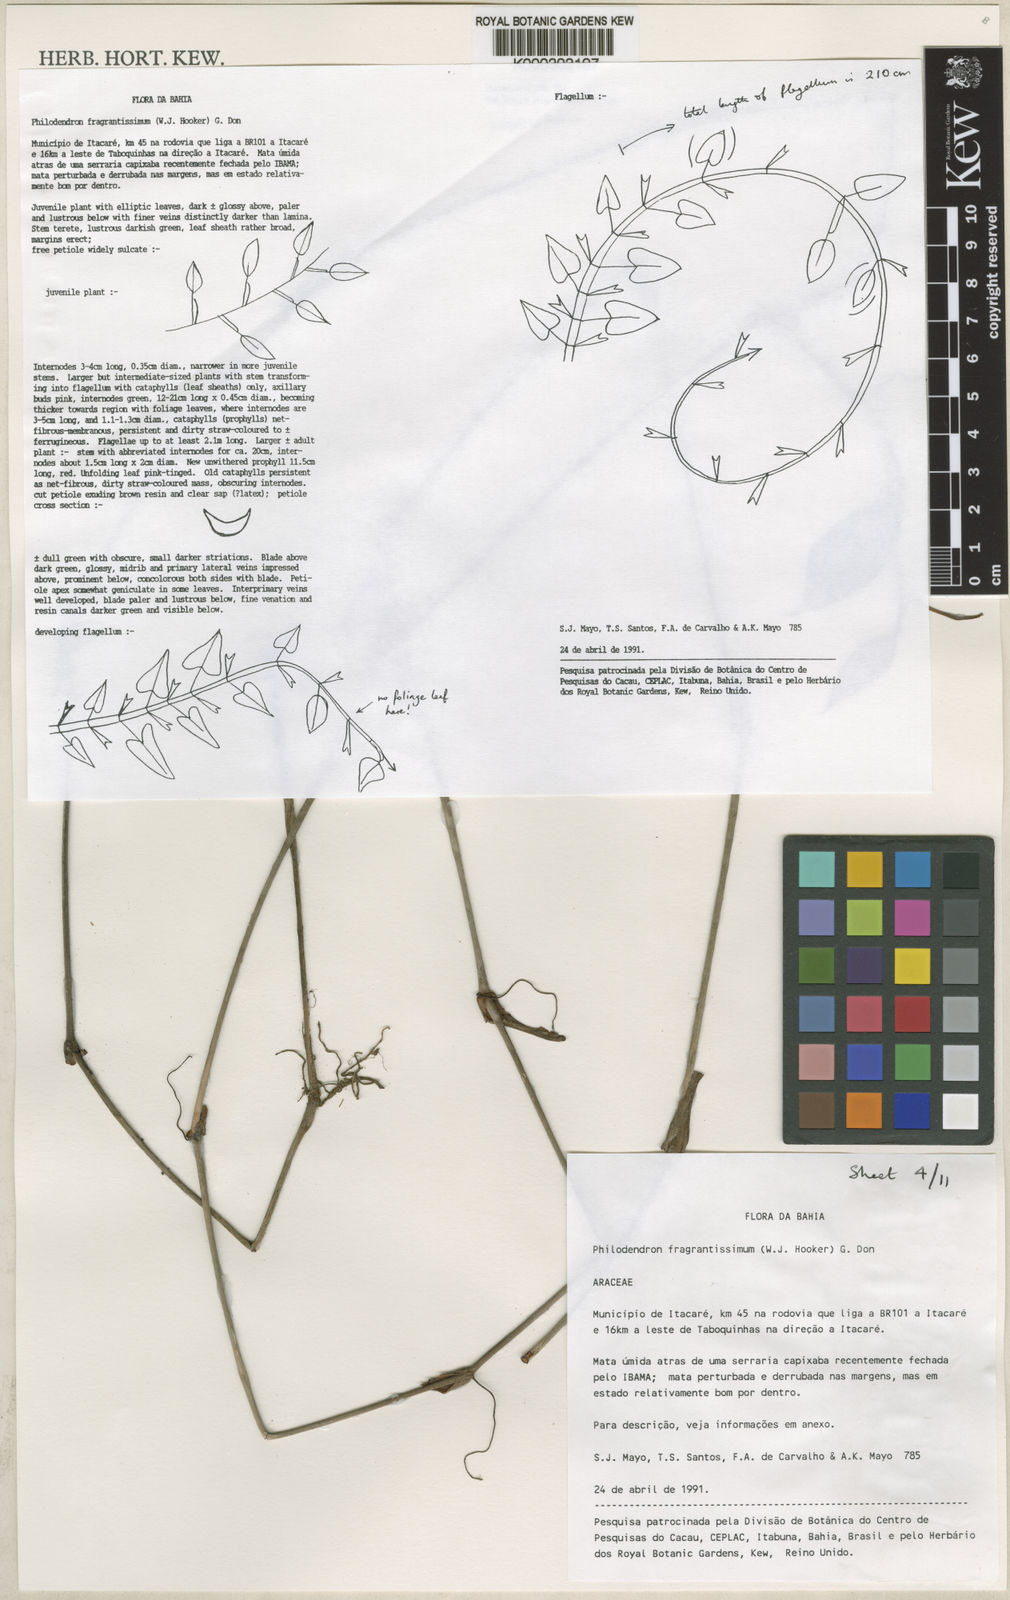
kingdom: Plantae
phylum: Tracheophyta
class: Liliopsida
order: Alismatales
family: Araceae
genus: Philodendron
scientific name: Philodendron fragrantissimum
